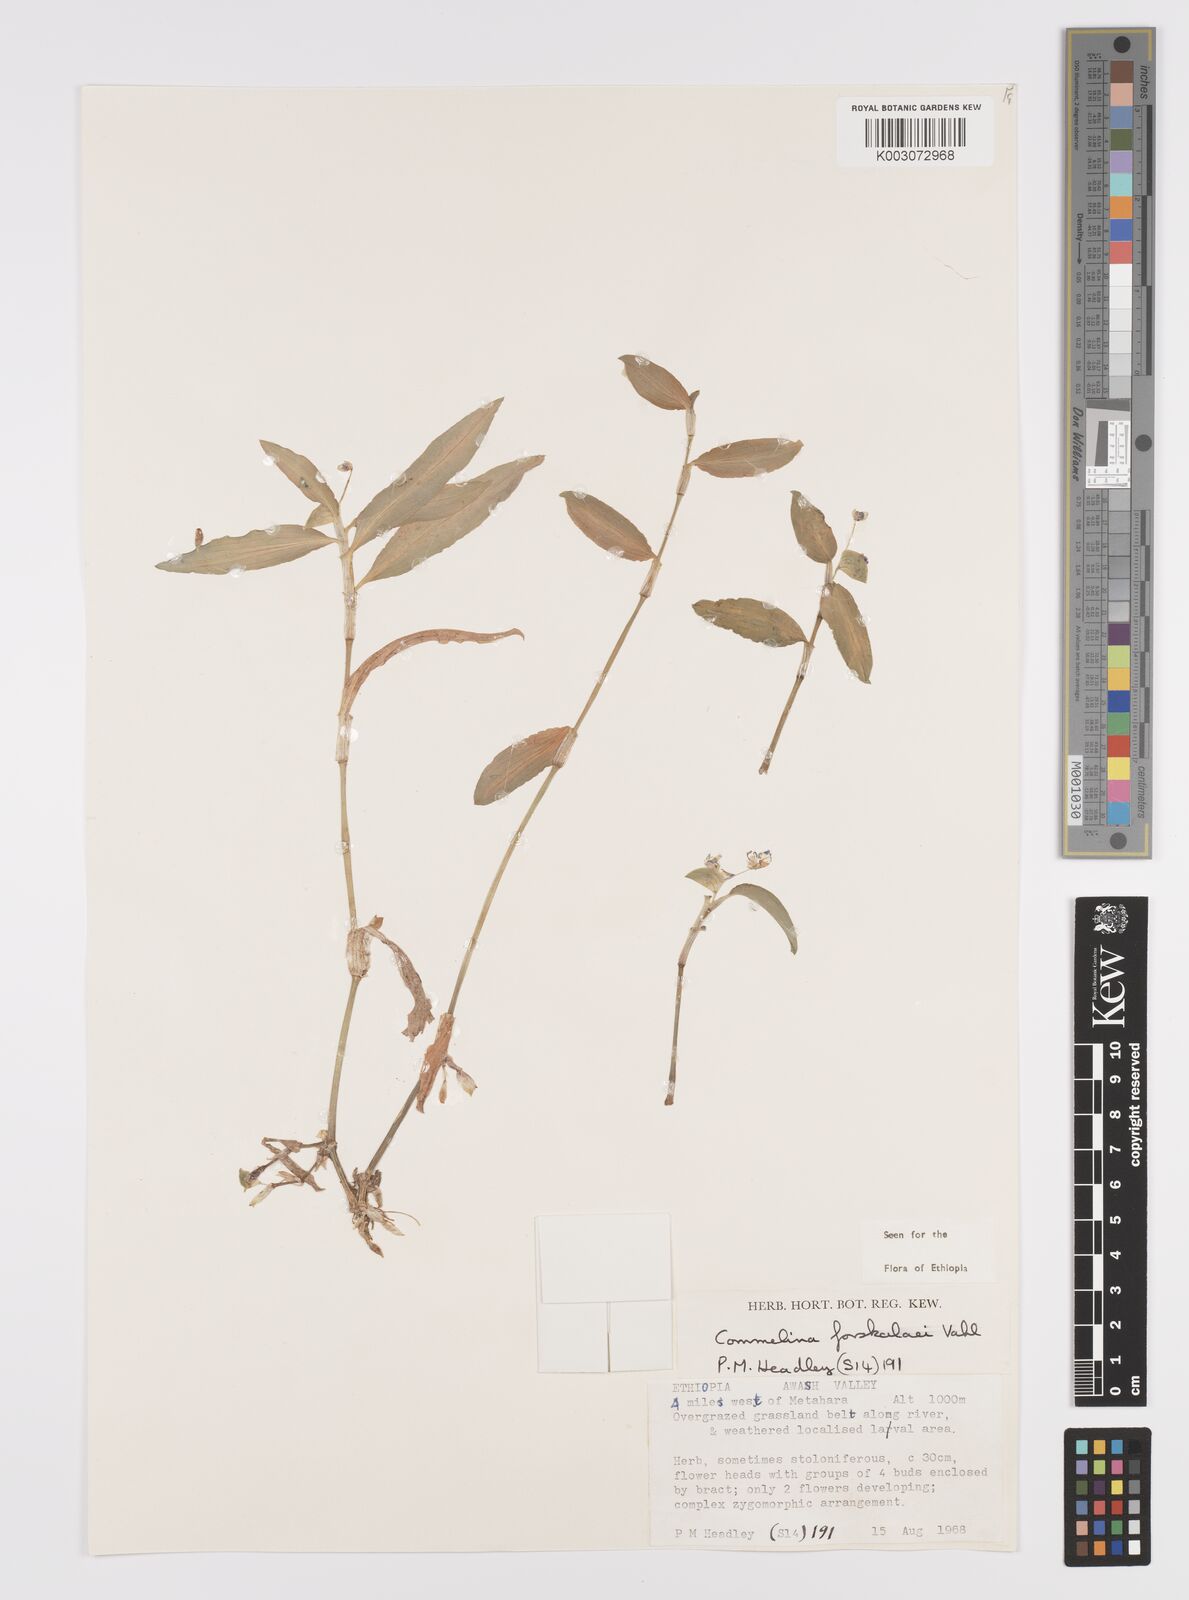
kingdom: Plantae
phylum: Tracheophyta
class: Liliopsida
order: Commelinales
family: Commelinaceae
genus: Commelina
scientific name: Commelina forskaolii
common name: Rat's ear
